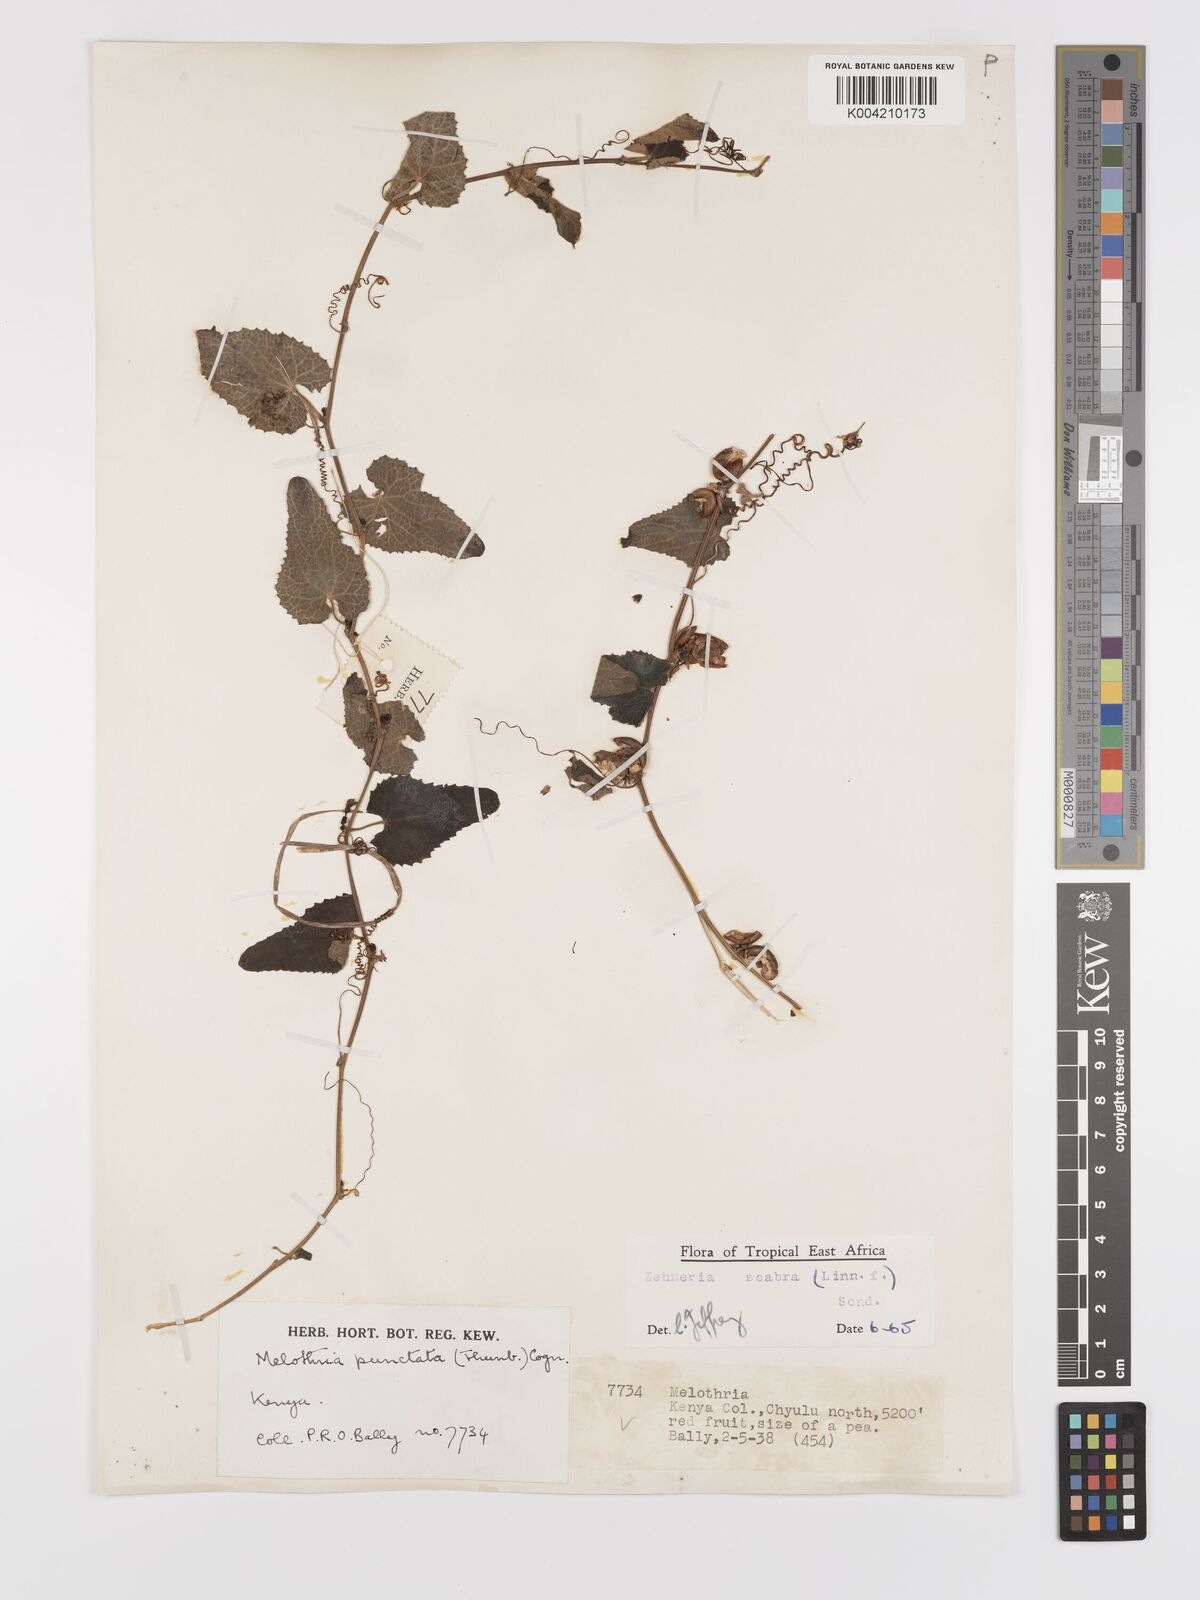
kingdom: Plantae
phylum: Tracheophyta
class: Magnoliopsida
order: Cucurbitales
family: Cucurbitaceae
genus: Zehneria
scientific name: Zehneria scabra
